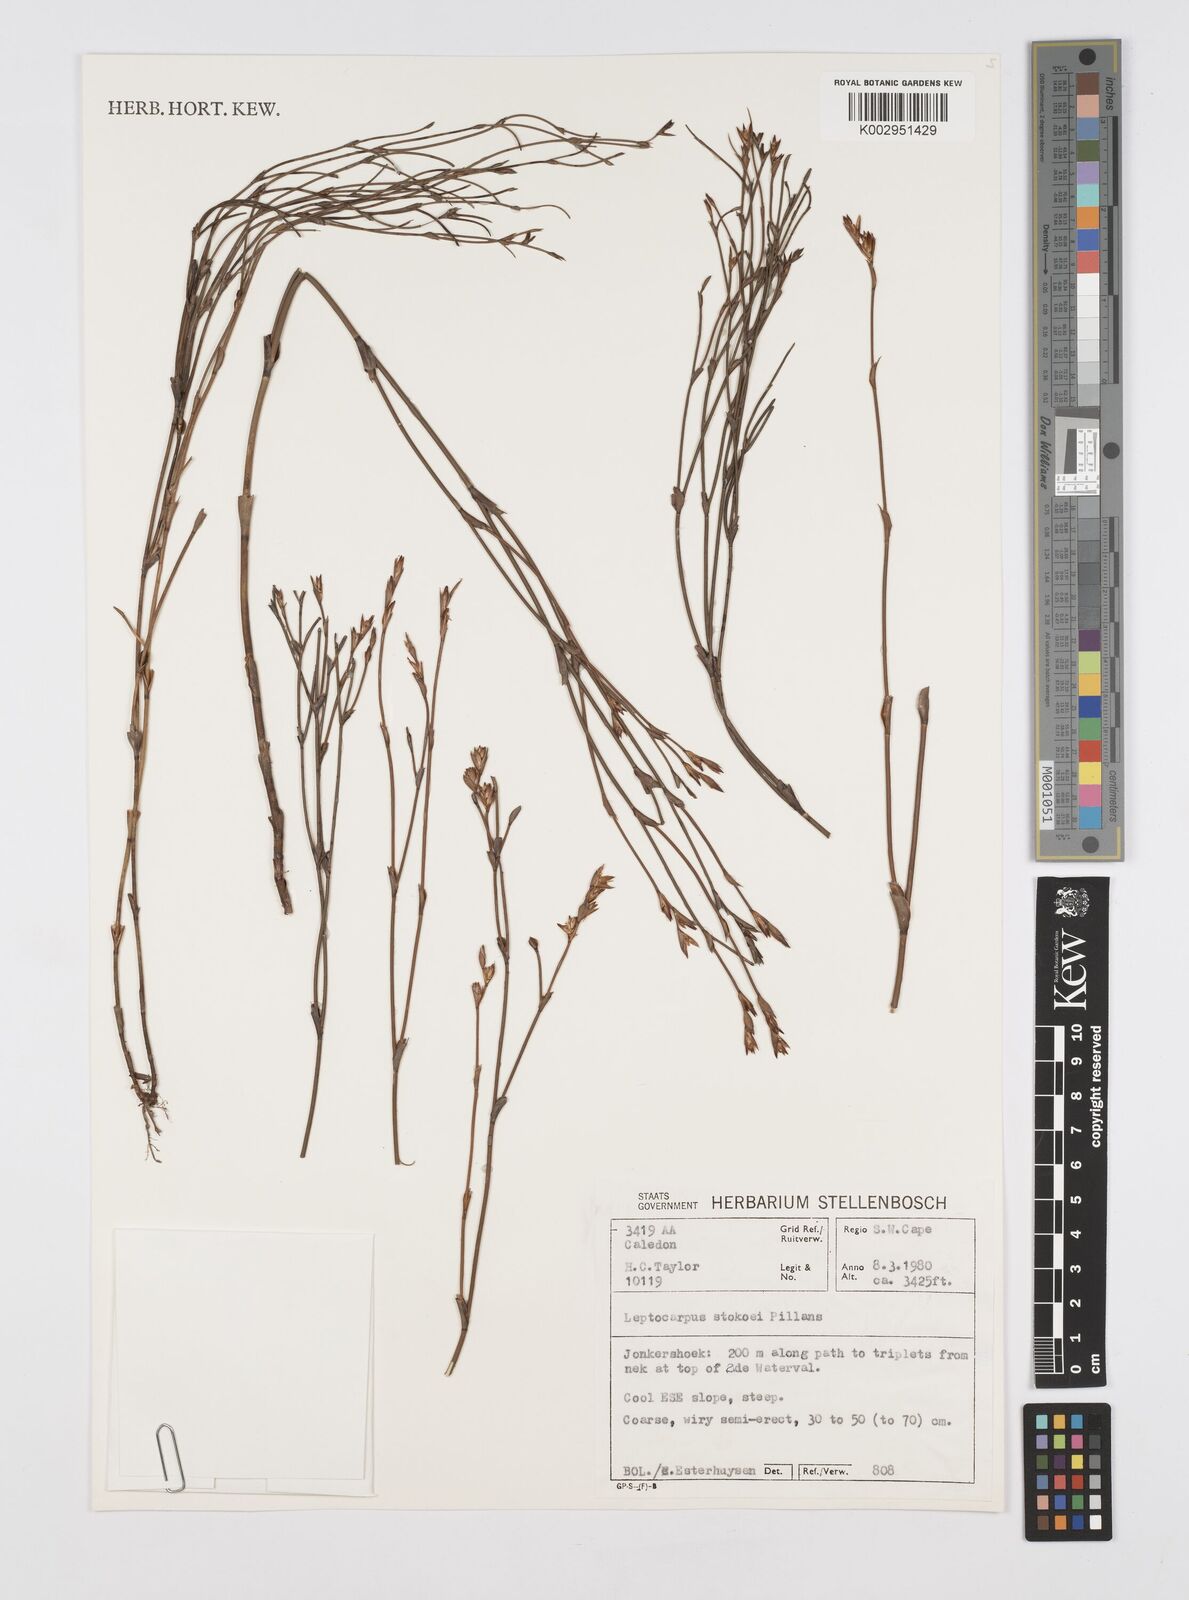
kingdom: Plantae
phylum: Tracheophyta
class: Liliopsida
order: Poales
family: Restionaceae
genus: Restio
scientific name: Restio pillansii
